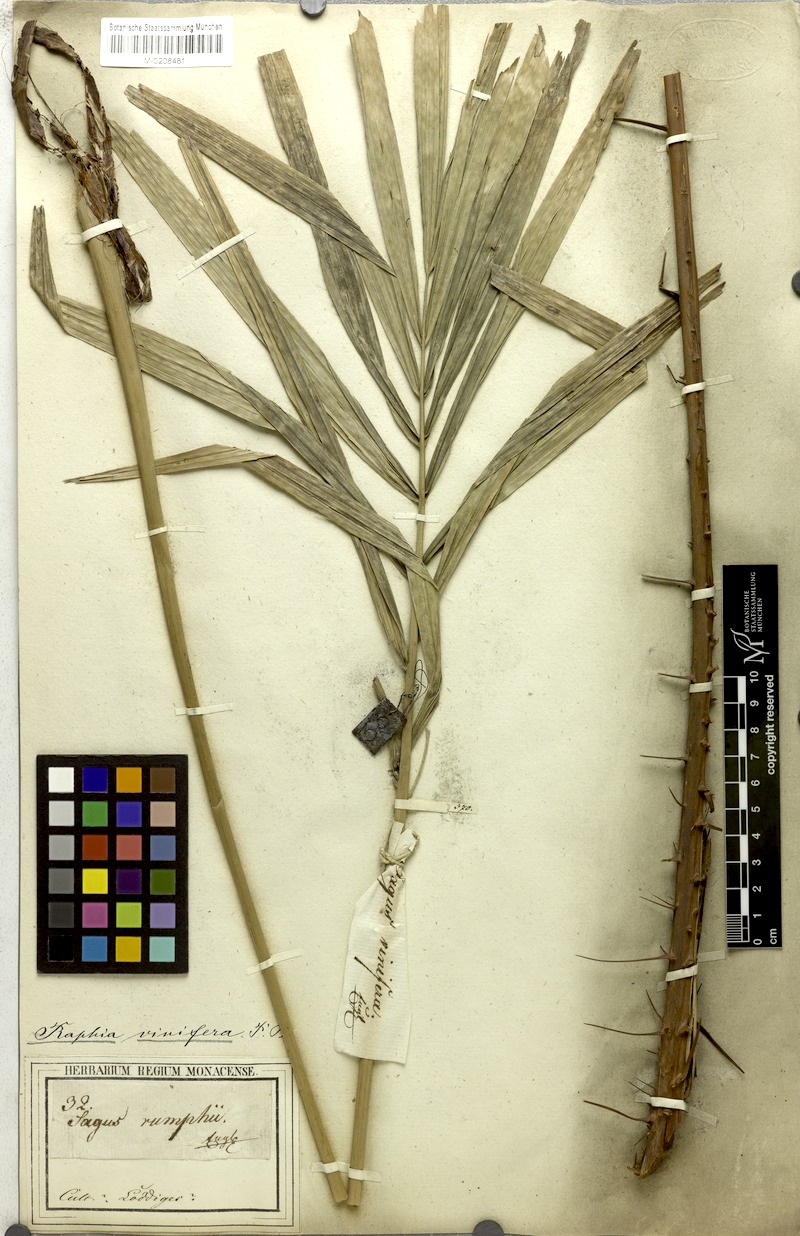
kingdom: Plantae
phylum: Tracheophyta
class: Liliopsida
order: Arecales
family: Arecaceae
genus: Raphia
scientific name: Raphia vinifera
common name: Raphia palm
